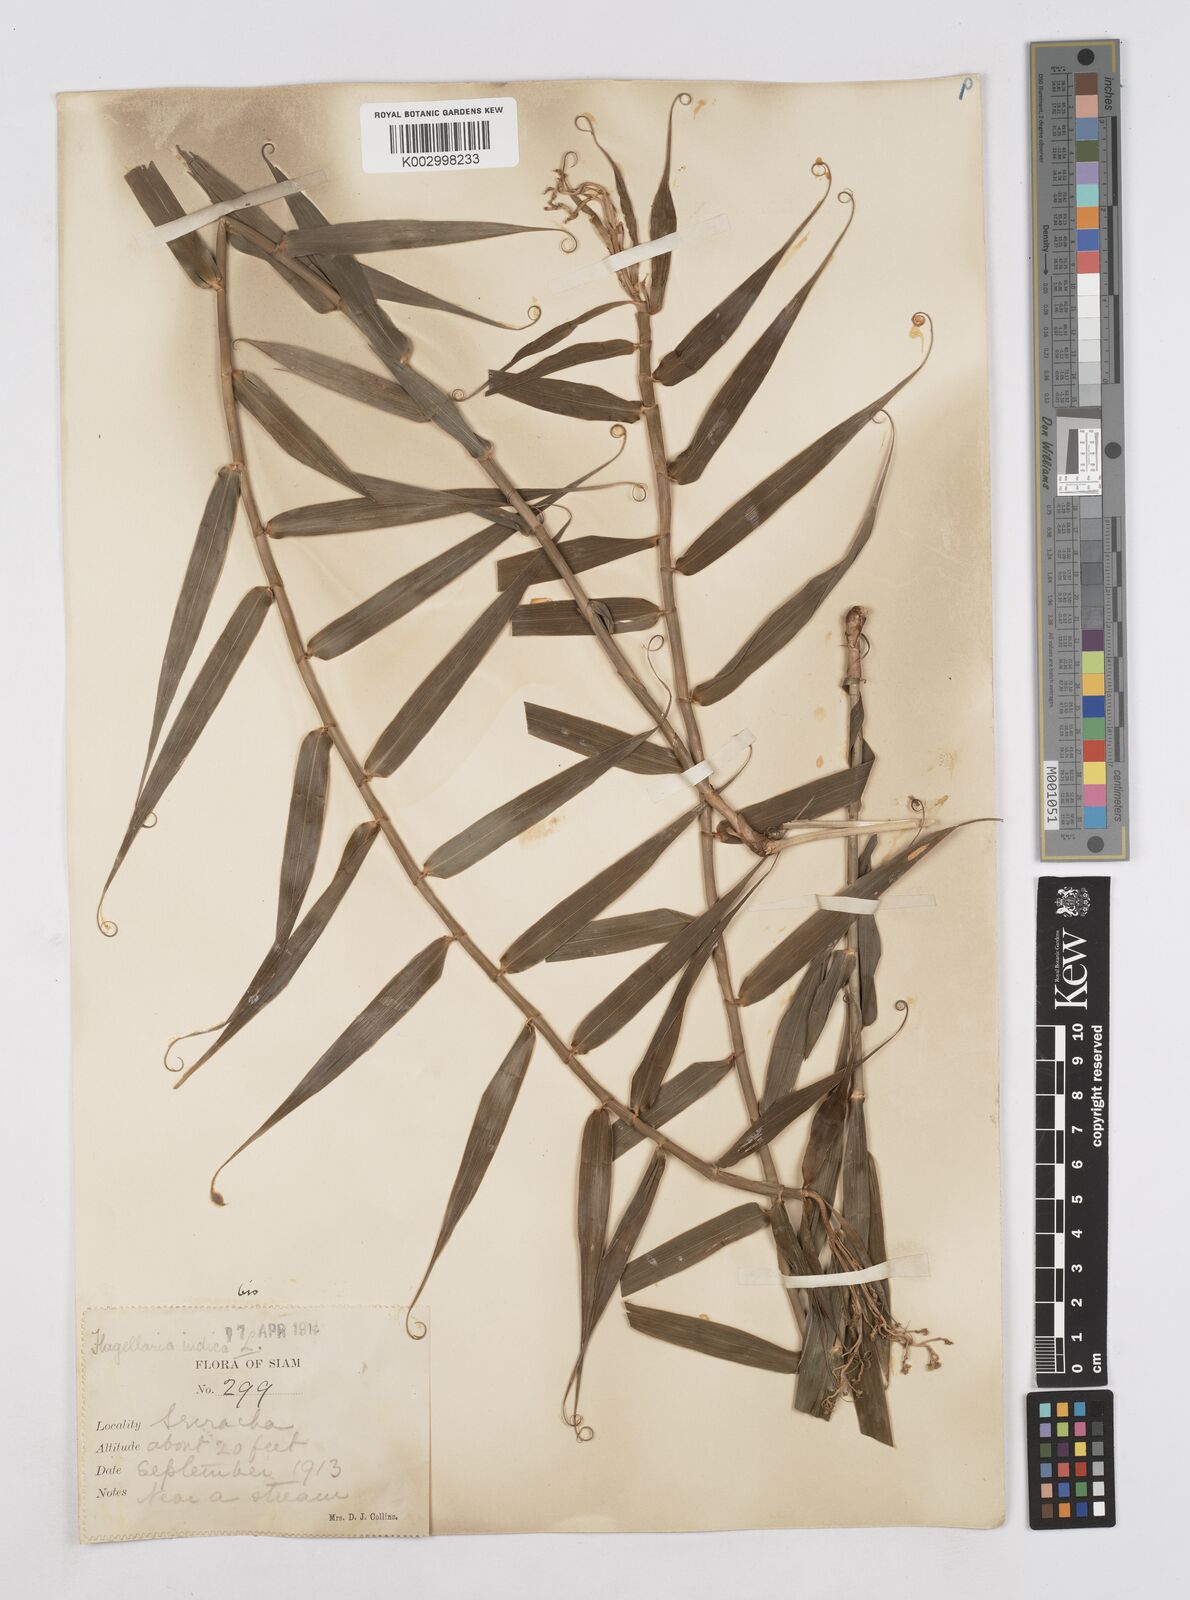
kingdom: Plantae
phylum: Tracheophyta
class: Liliopsida
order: Poales
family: Flagellariaceae
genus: Flagellaria
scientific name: Flagellaria indica
